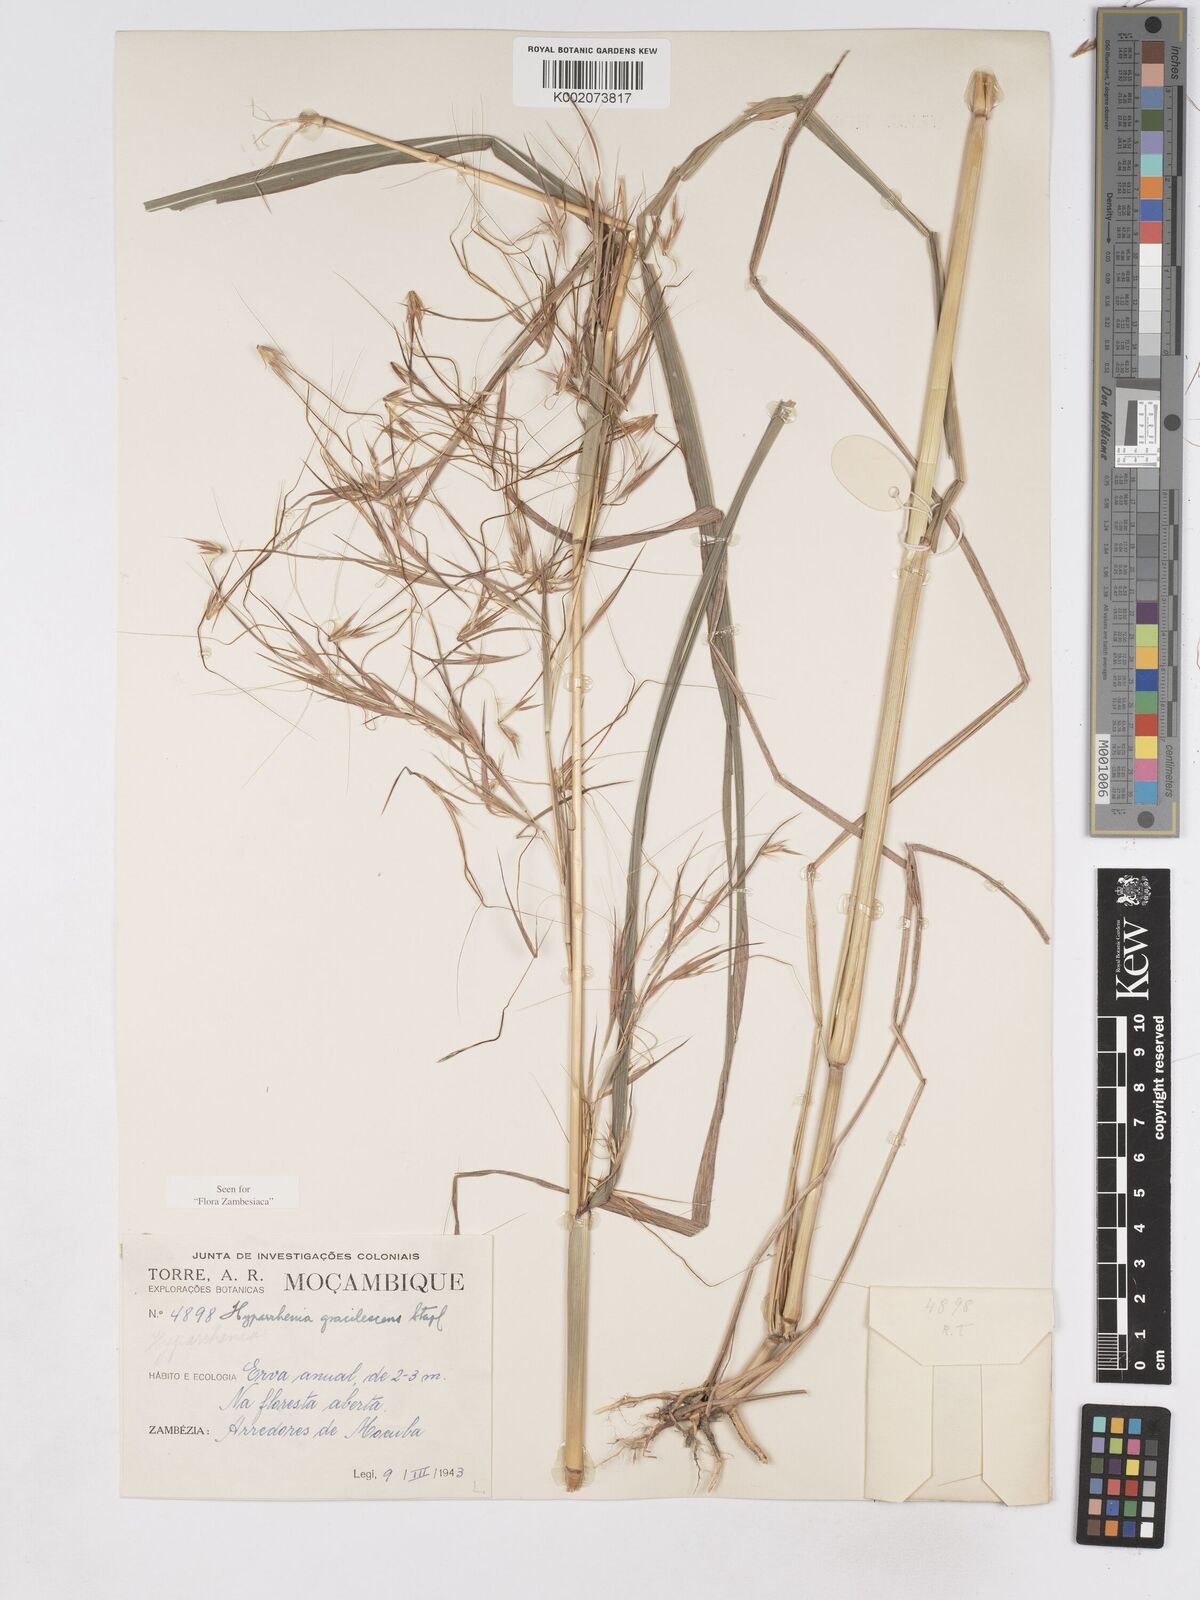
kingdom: Plantae
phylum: Tracheophyta
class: Liliopsida
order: Poales
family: Poaceae
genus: Hyparrhenia
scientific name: Hyparrhenia welwitschii
